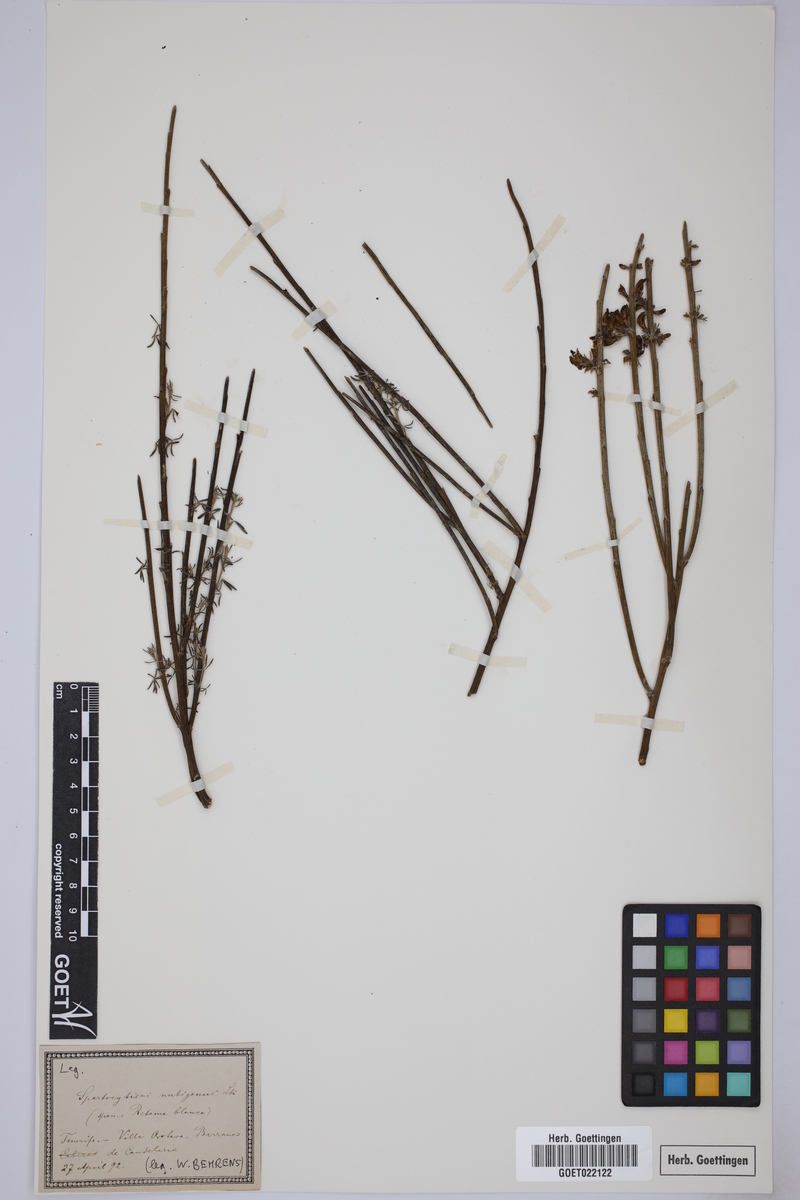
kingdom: Plantae
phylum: Tracheophyta
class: Magnoliopsida
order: Fabales
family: Fabaceae
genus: Cytisus
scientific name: Cytisus supranubius
